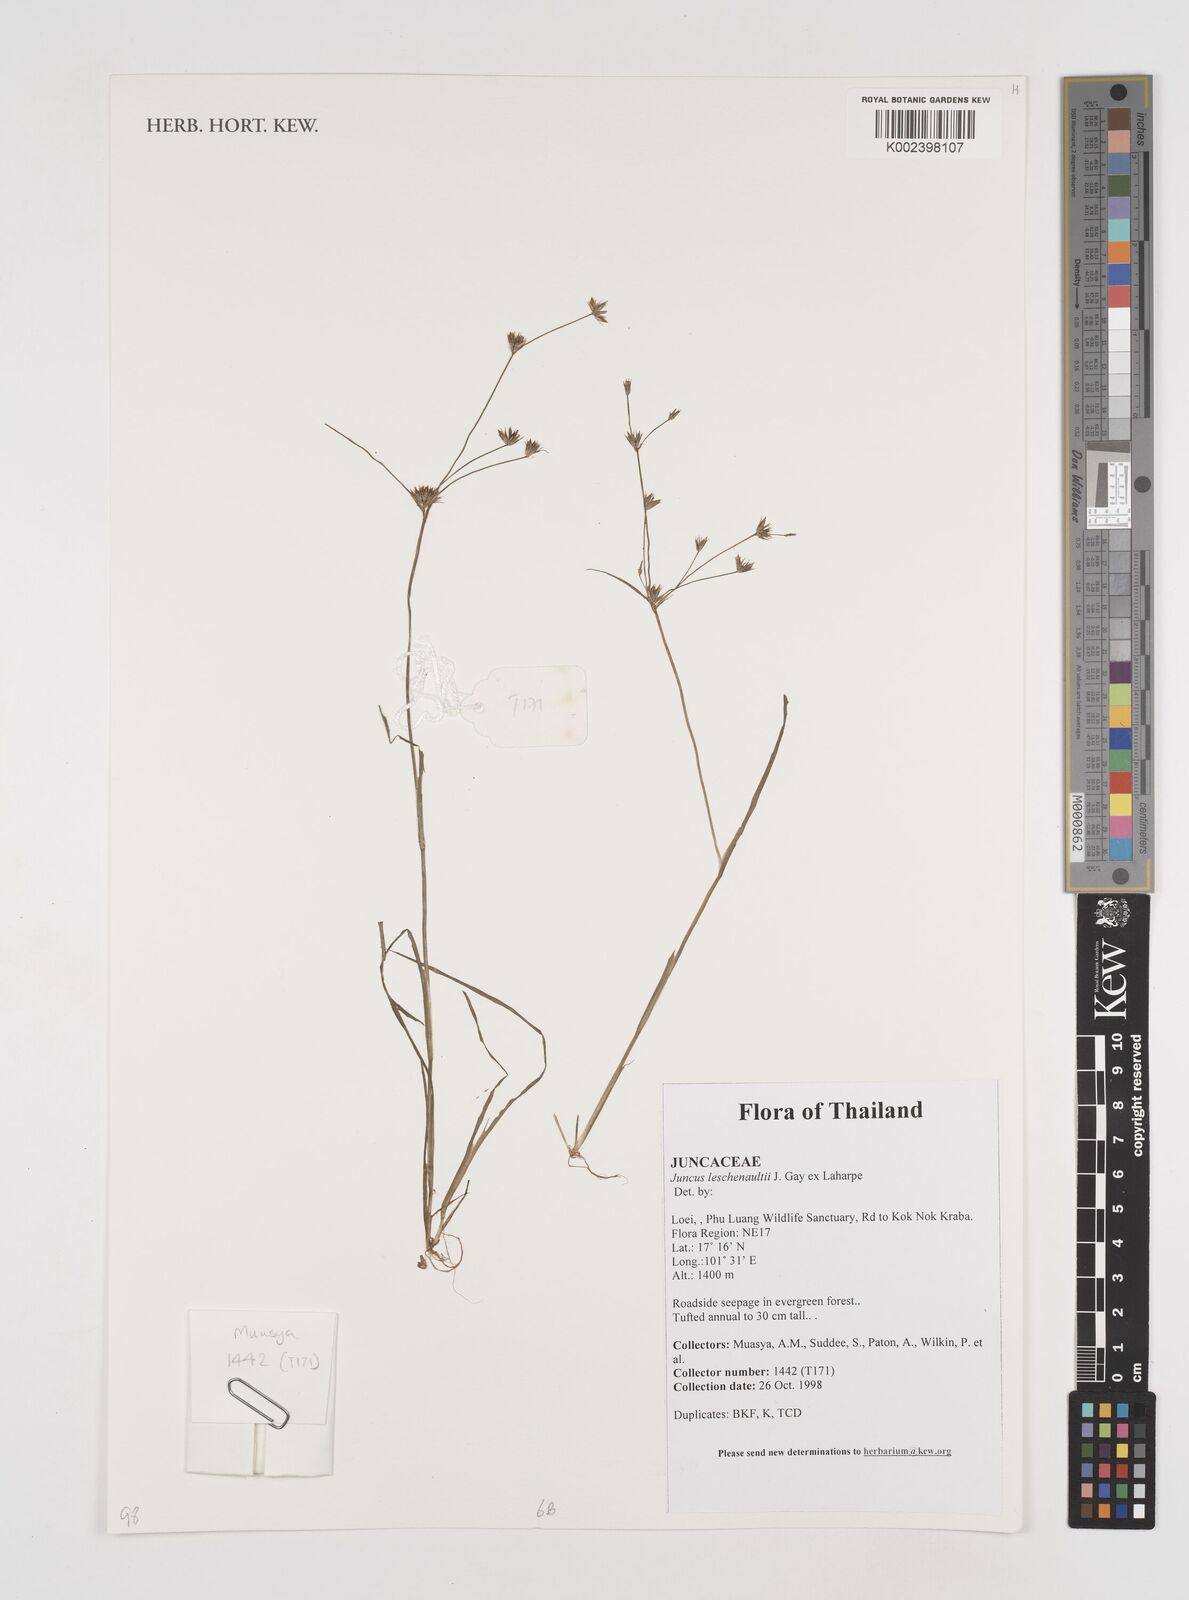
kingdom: Plantae
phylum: Tracheophyta
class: Liliopsida
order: Poales
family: Juncaceae
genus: Juncus
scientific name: Juncus prismatocarpus
